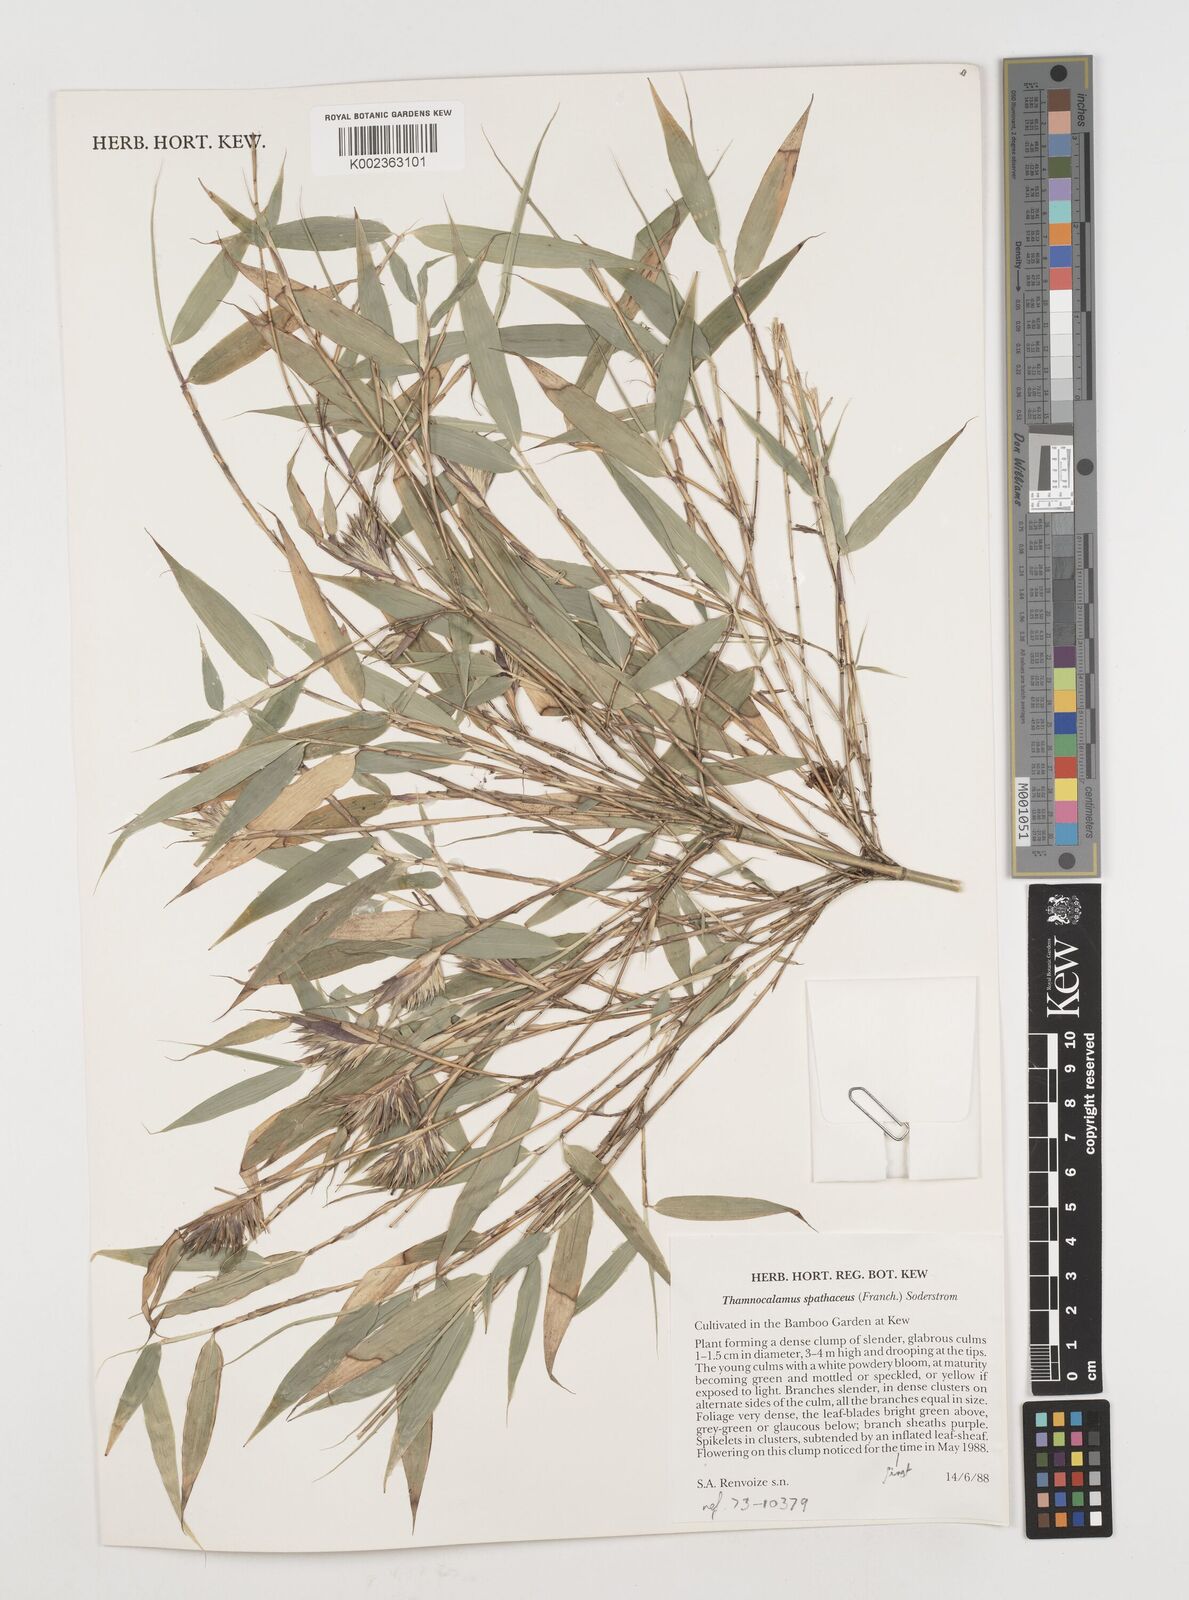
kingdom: Plantae
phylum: Tracheophyta
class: Liliopsida
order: Poales
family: Poaceae
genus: Fargesia
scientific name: Fargesia murielae
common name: Umbrella bamboo
